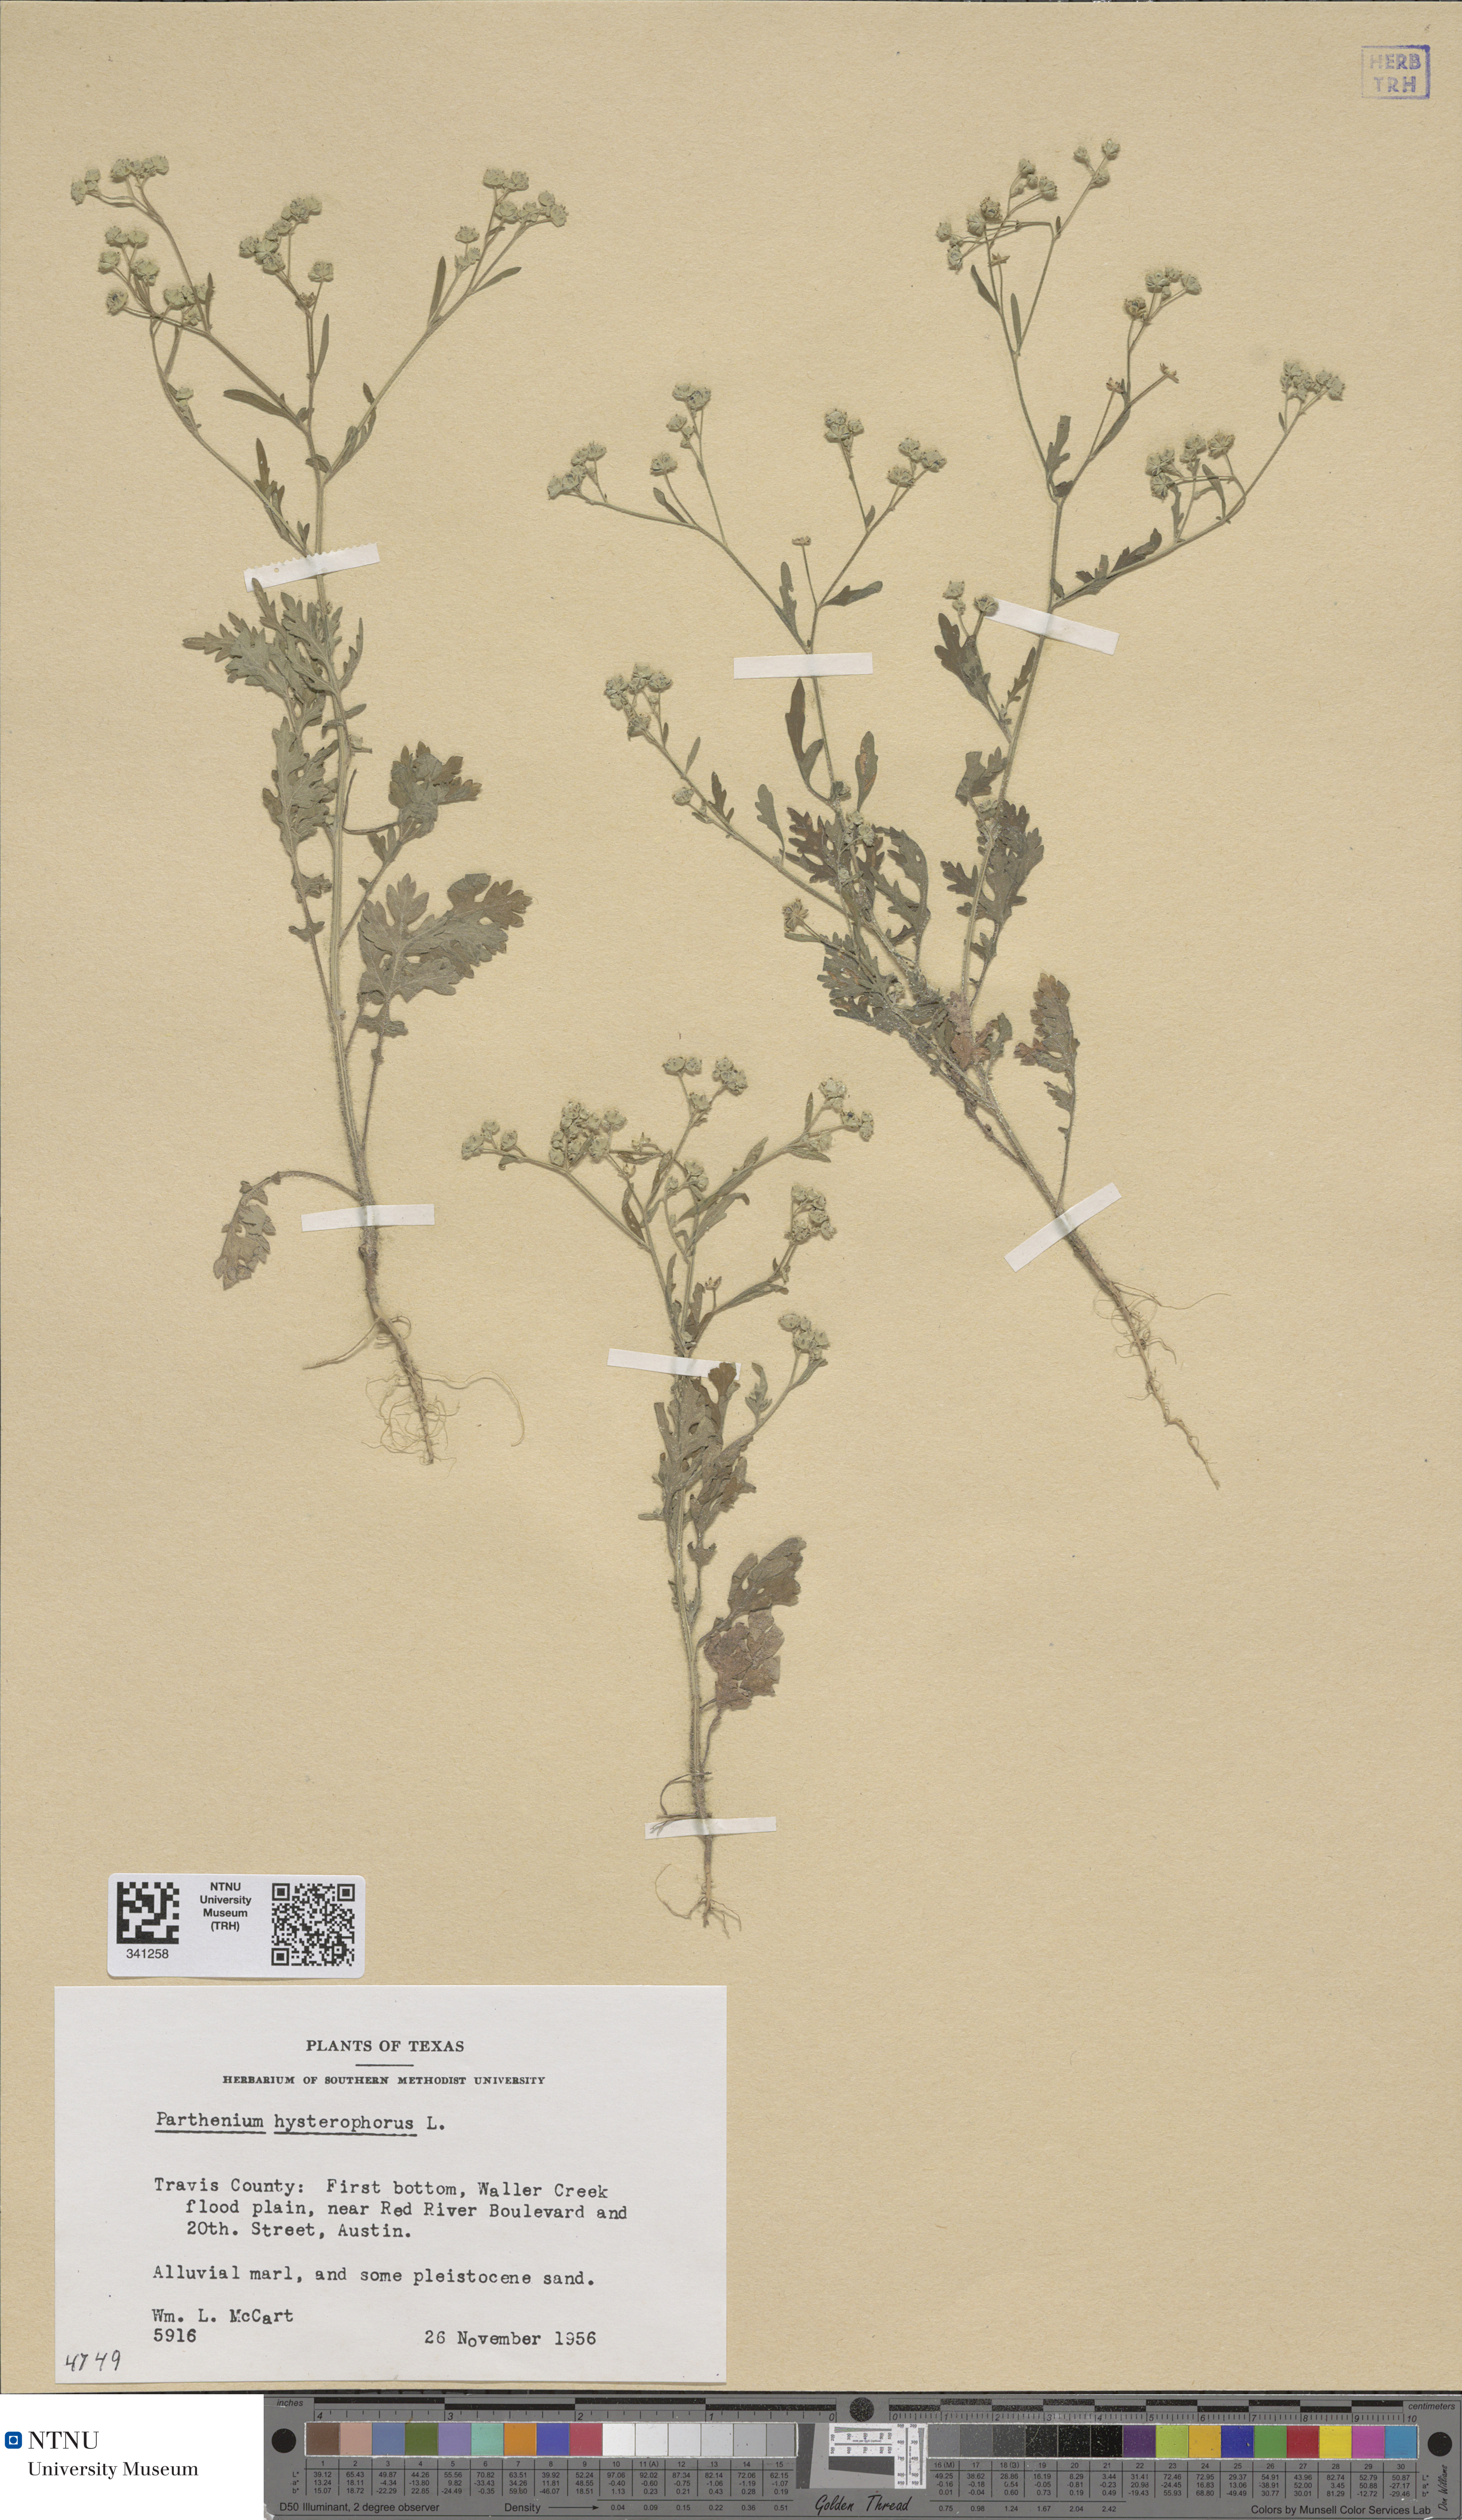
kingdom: Plantae
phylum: Tracheophyta
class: Magnoliopsida
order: Asterales
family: Asteraceae
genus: Parthenium
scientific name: Parthenium hysterophorus
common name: Santa maria feverfew
